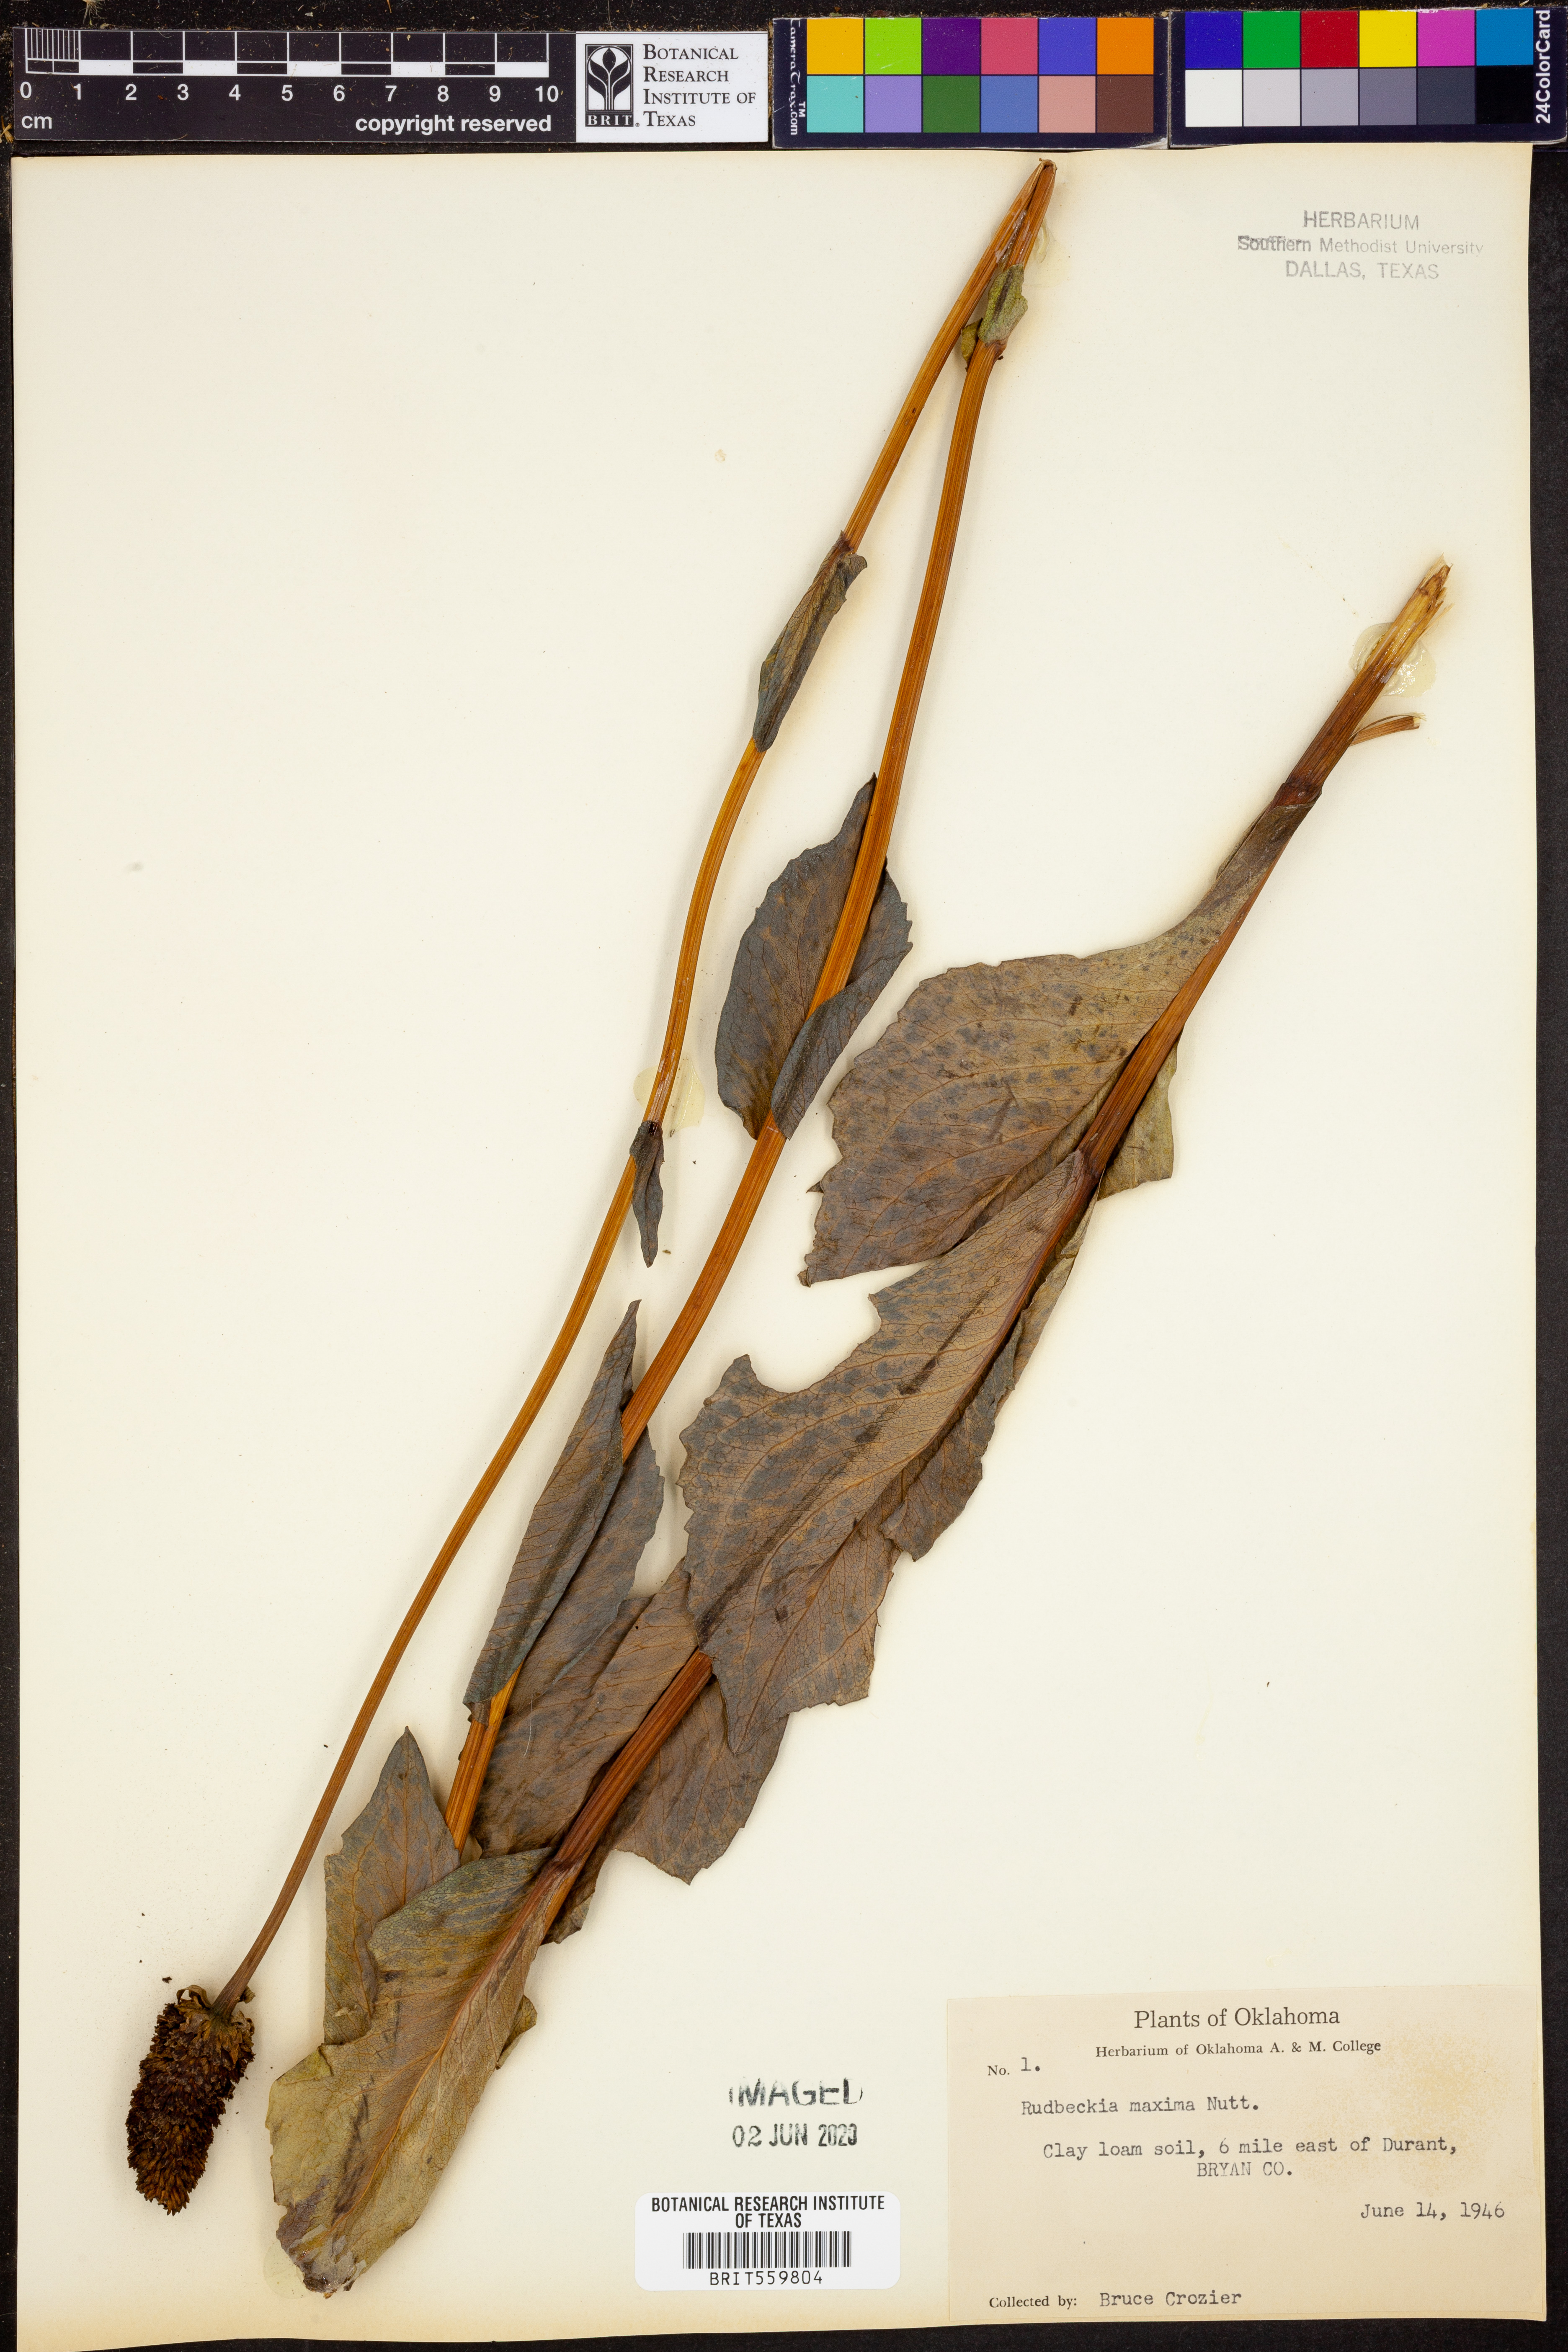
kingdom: Plantae
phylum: Tracheophyta
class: Magnoliopsida
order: Asterales
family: Asteraceae
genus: Rudbeckia
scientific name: Rudbeckia maxima
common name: Cabbage coneflower
